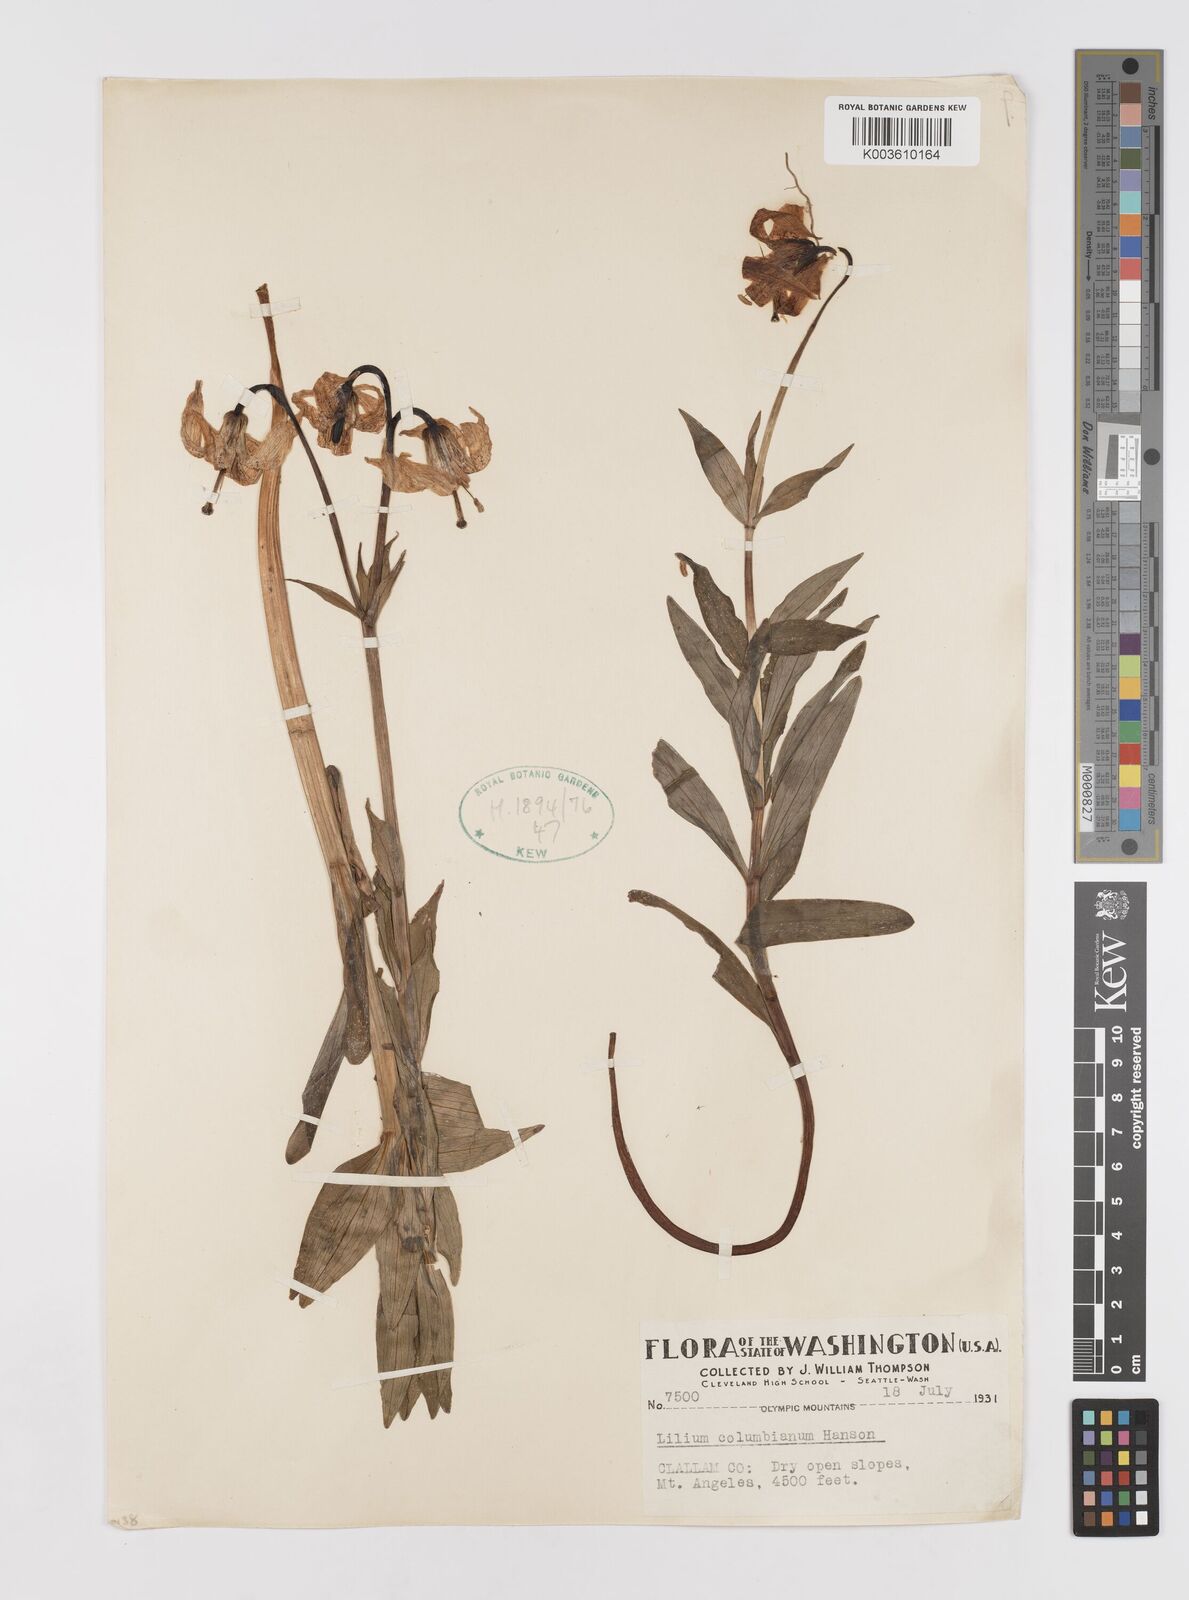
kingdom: Plantae
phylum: Tracheophyta
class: Liliopsida
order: Liliales
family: Liliaceae
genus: Lilium
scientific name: Lilium
